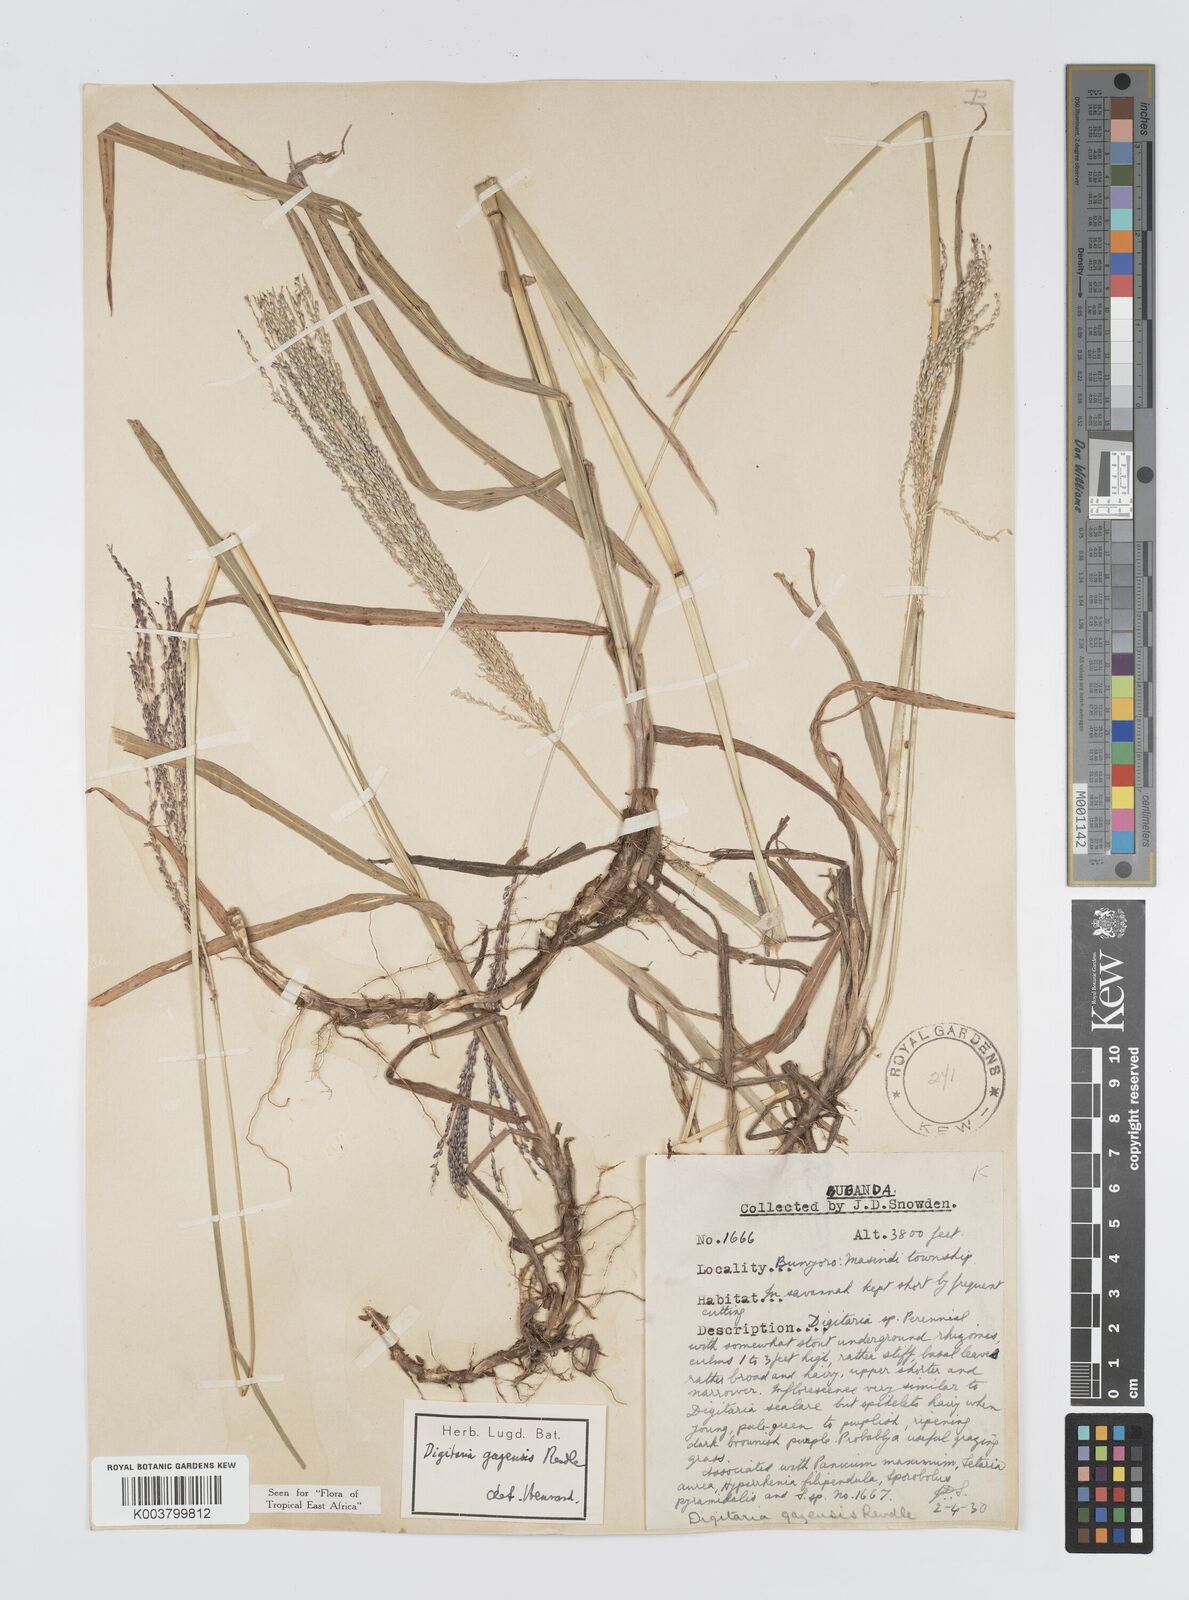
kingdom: Plantae
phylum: Tracheophyta
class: Liliopsida
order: Poales
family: Poaceae
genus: Digitaria
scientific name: Digitaria gazensis
